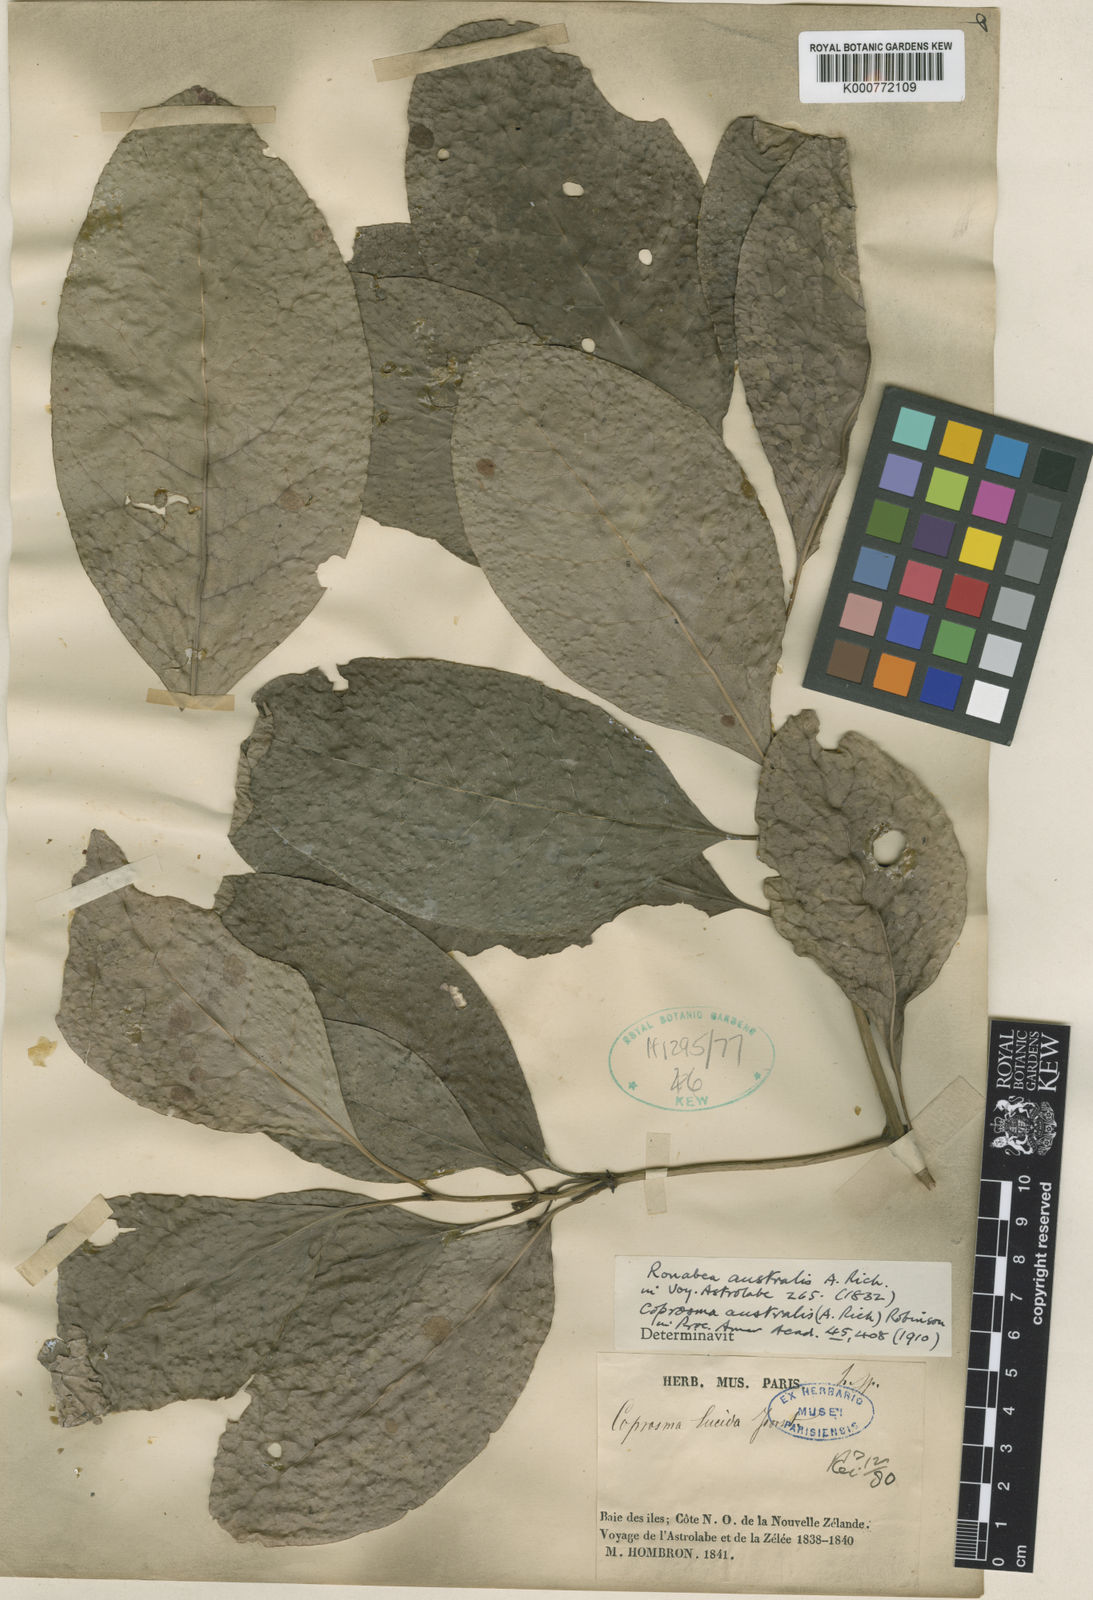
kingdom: Plantae
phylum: Tracheophyta
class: Magnoliopsida
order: Gentianales
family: Rubiaceae
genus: Coprosma
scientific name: Coprosma lucida
